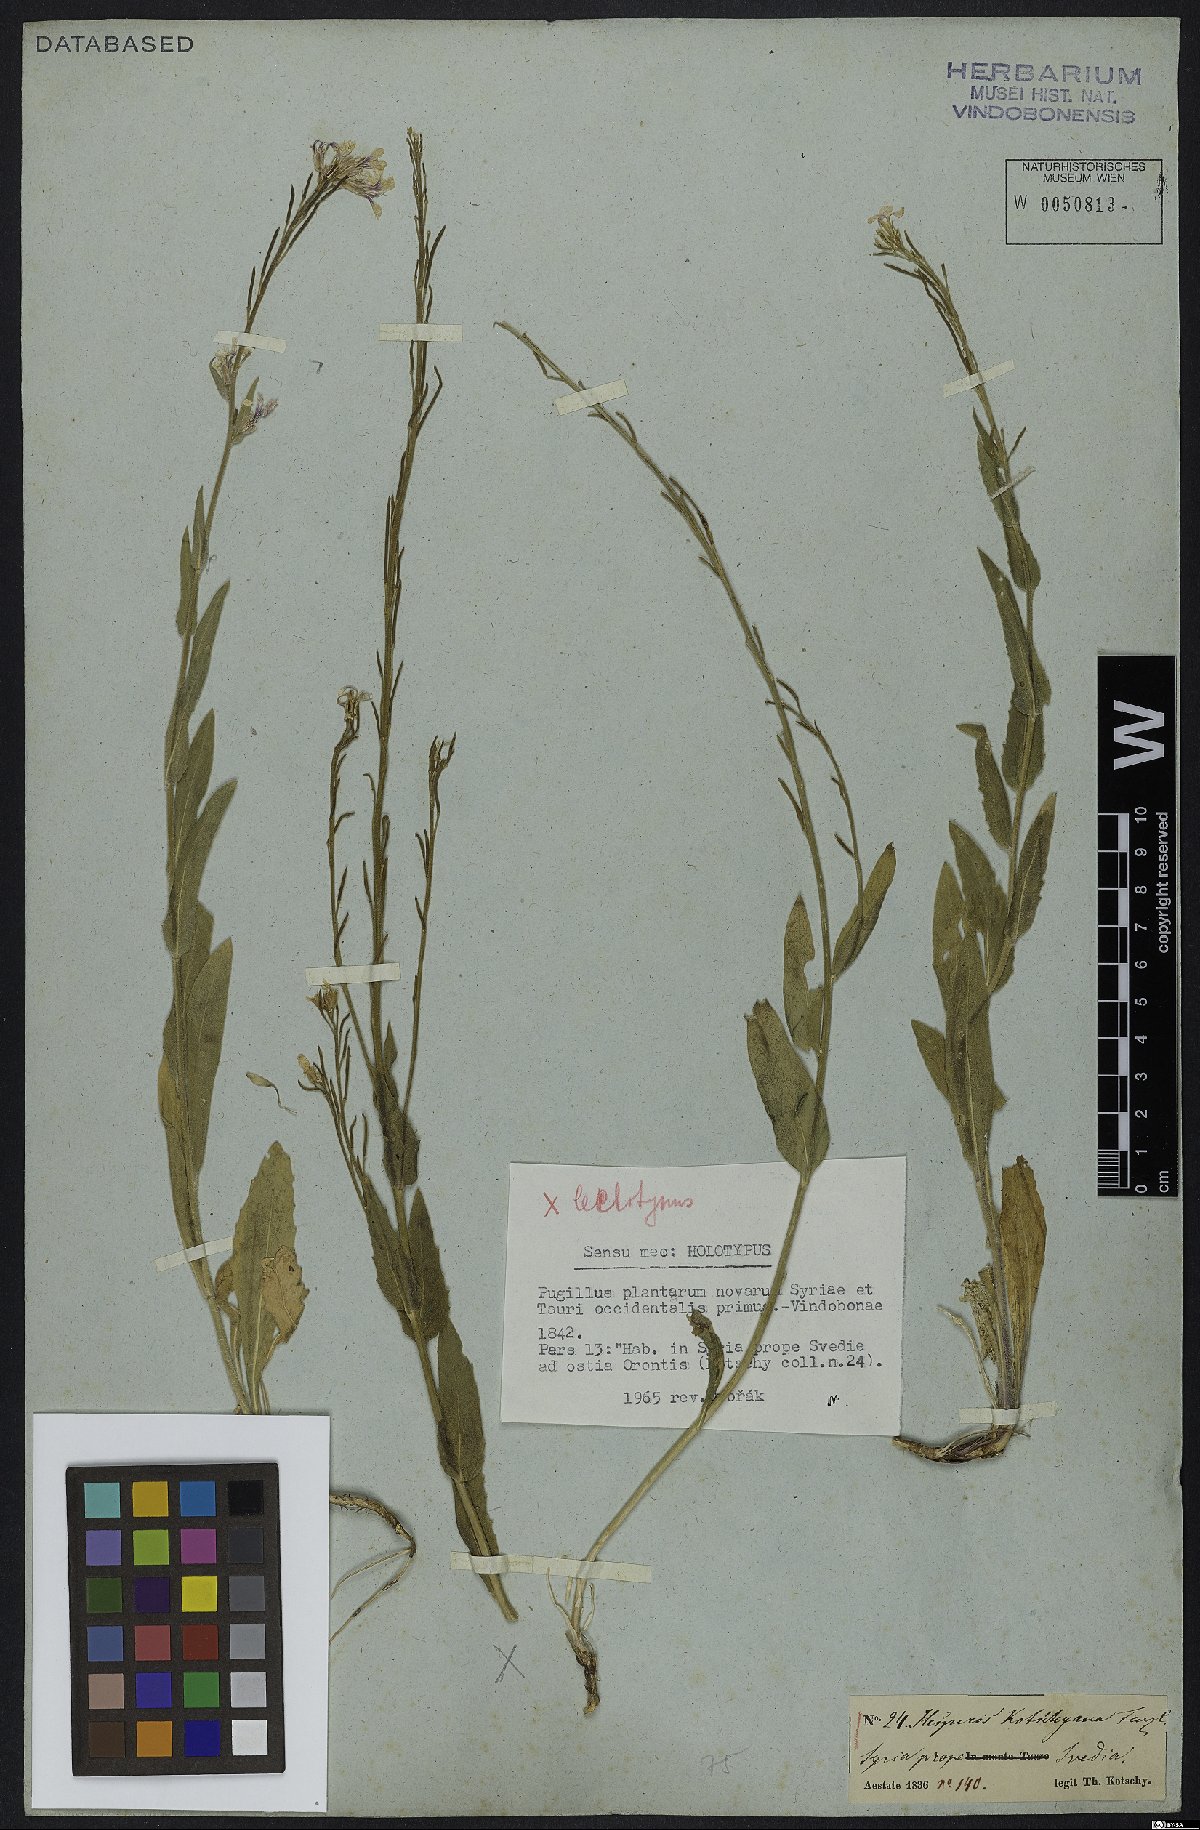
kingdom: Plantae
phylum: Tracheophyta
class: Magnoliopsida
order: Brassicales
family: Brassicaceae
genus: Hesperis
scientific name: Hesperis bicuspidata
